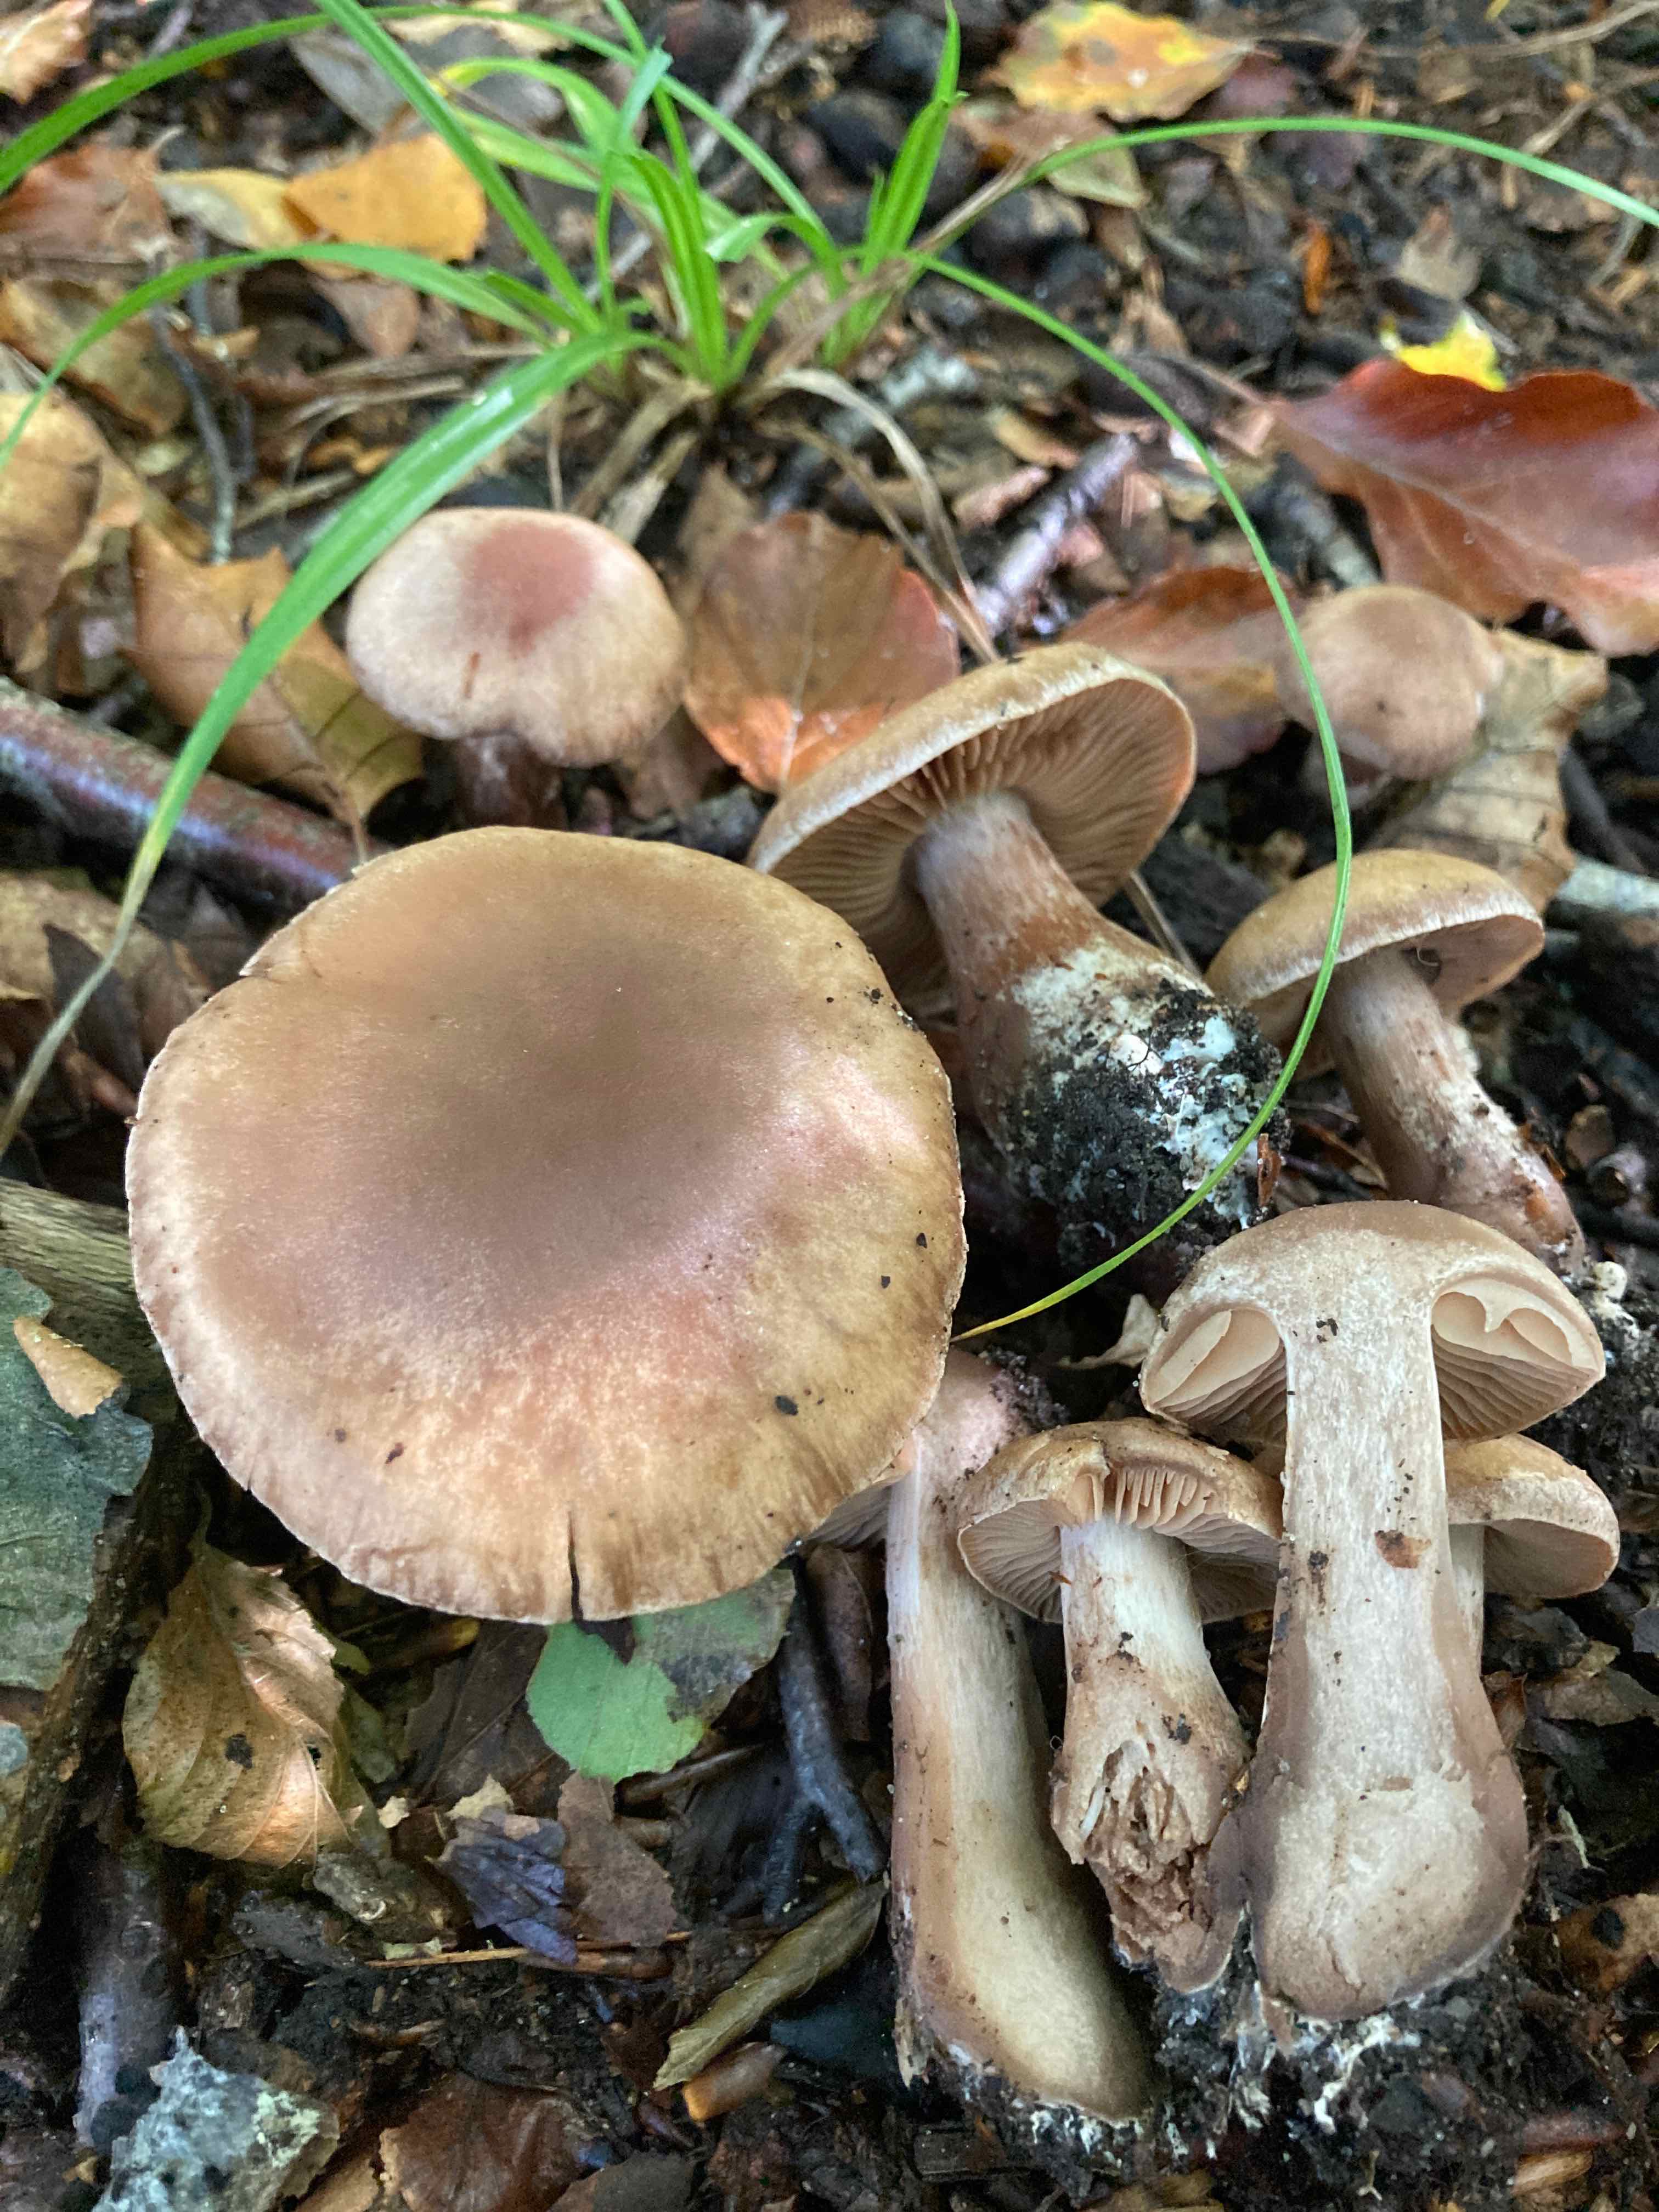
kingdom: Fungi
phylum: Basidiomycota
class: Agaricomycetes
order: Agaricales
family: Cortinariaceae
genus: Cortinarius
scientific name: Cortinarius sociatus
